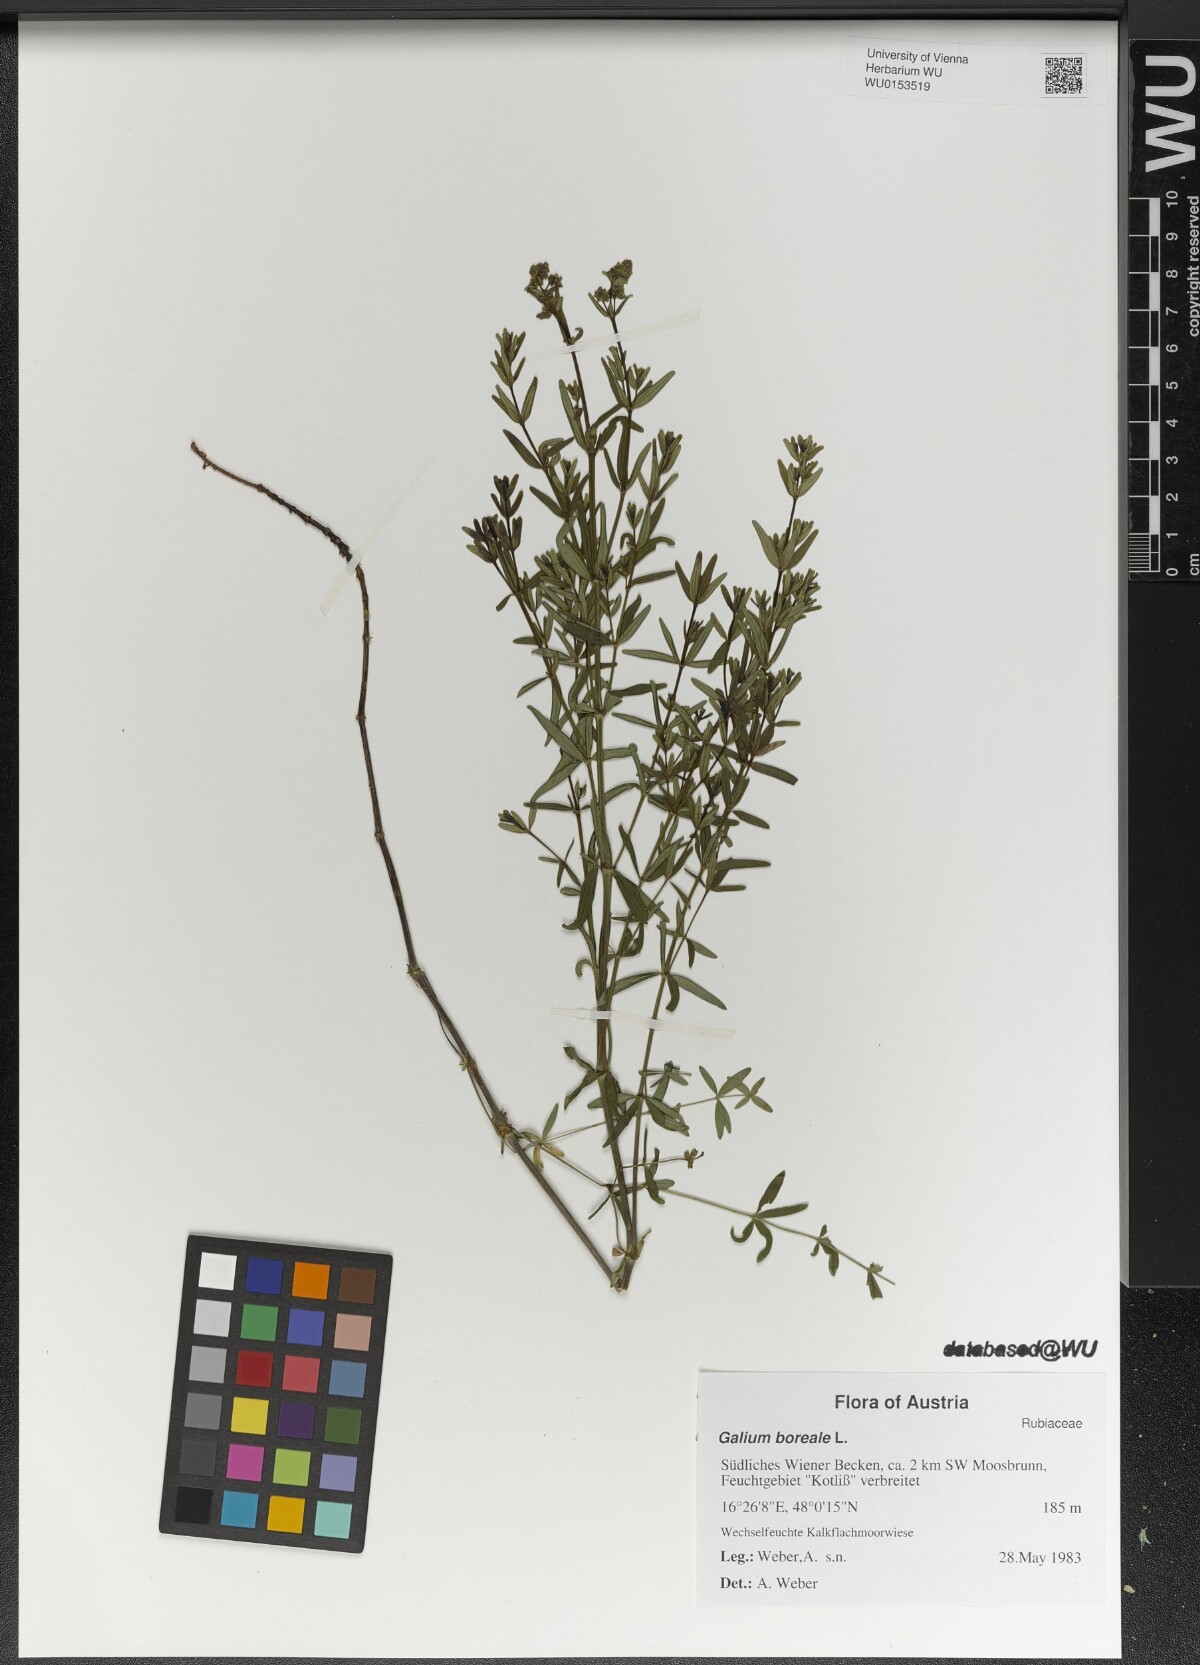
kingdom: Plantae
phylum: Tracheophyta
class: Magnoliopsida
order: Gentianales
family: Rubiaceae
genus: Galium
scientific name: Galium boreale
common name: Northern bedstraw
